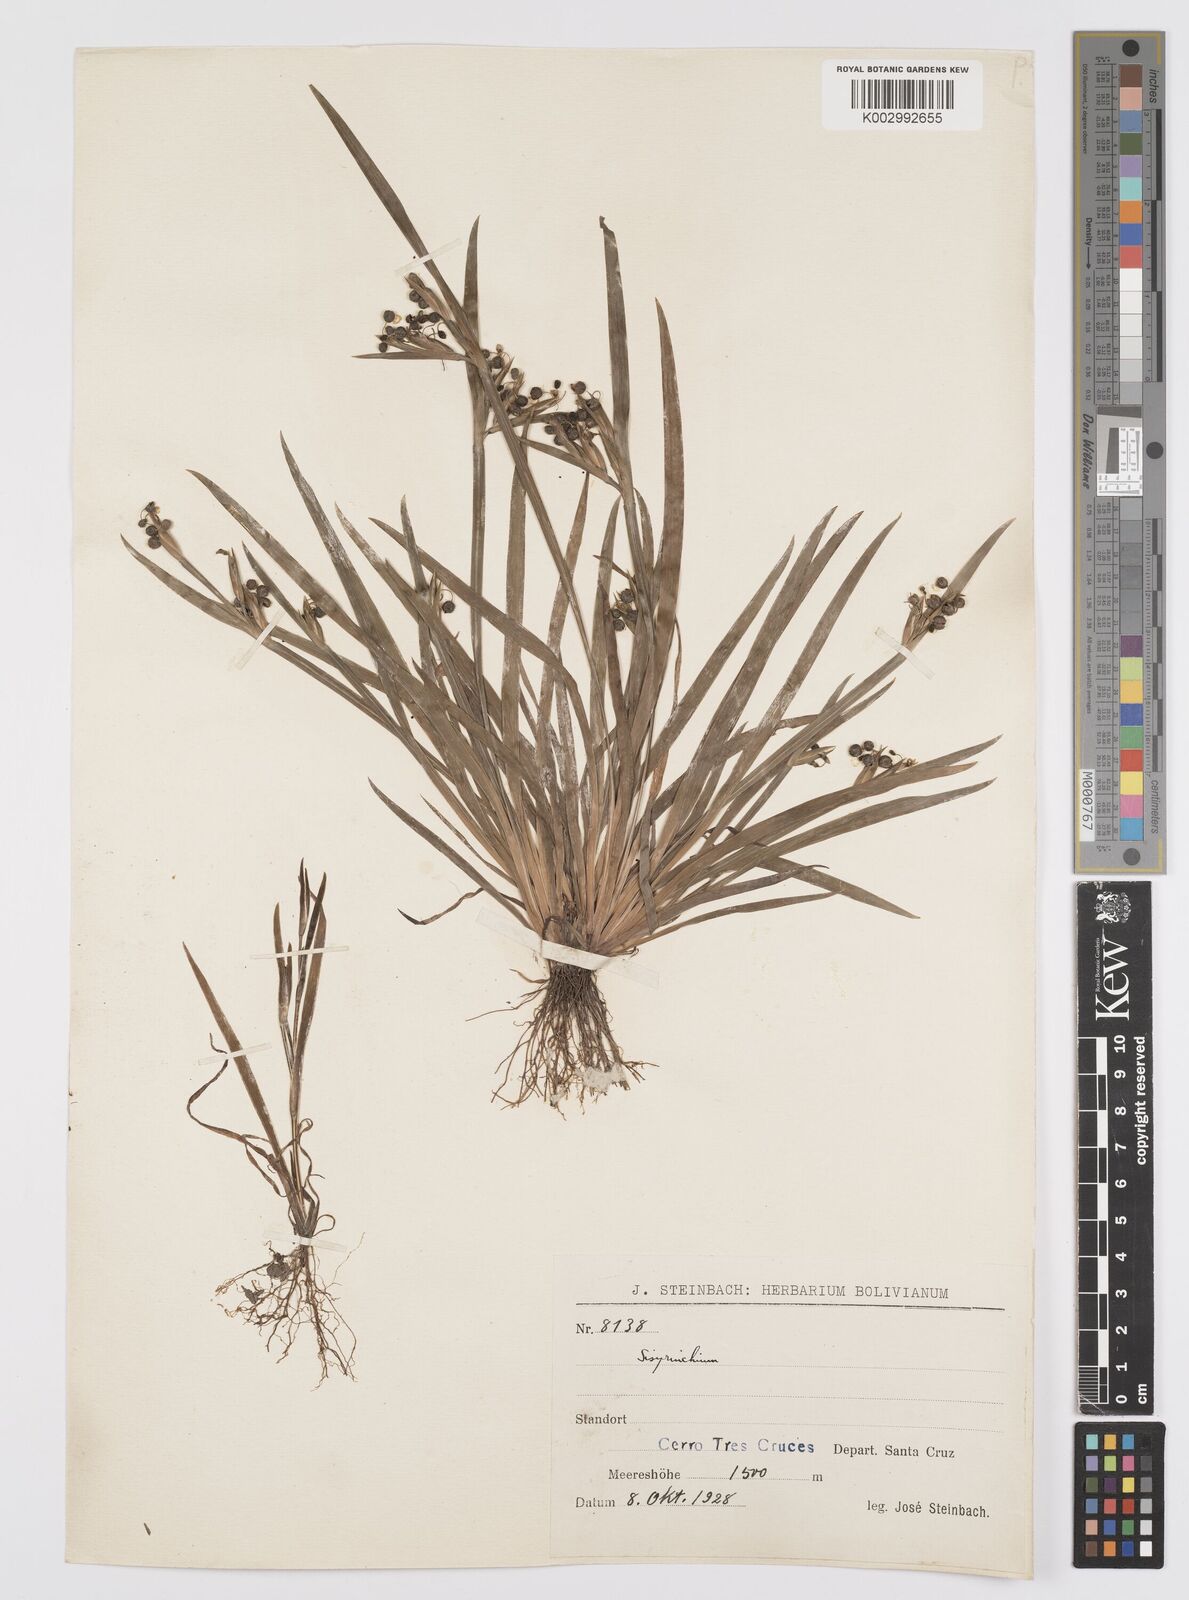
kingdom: Plantae
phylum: Tracheophyta
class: Liliopsida
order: Asparagales
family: Iridaceae
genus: Sisyrinchium
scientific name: Sisyrinchium
